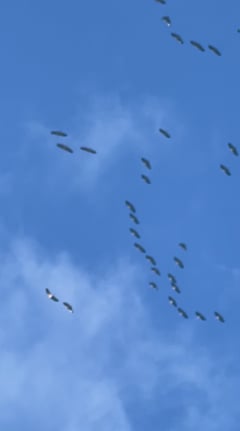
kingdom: Animalia
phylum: Chordata
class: Aves
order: Gruiformes
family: Gruidae
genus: Grus
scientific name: Grus grus
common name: Common crane
